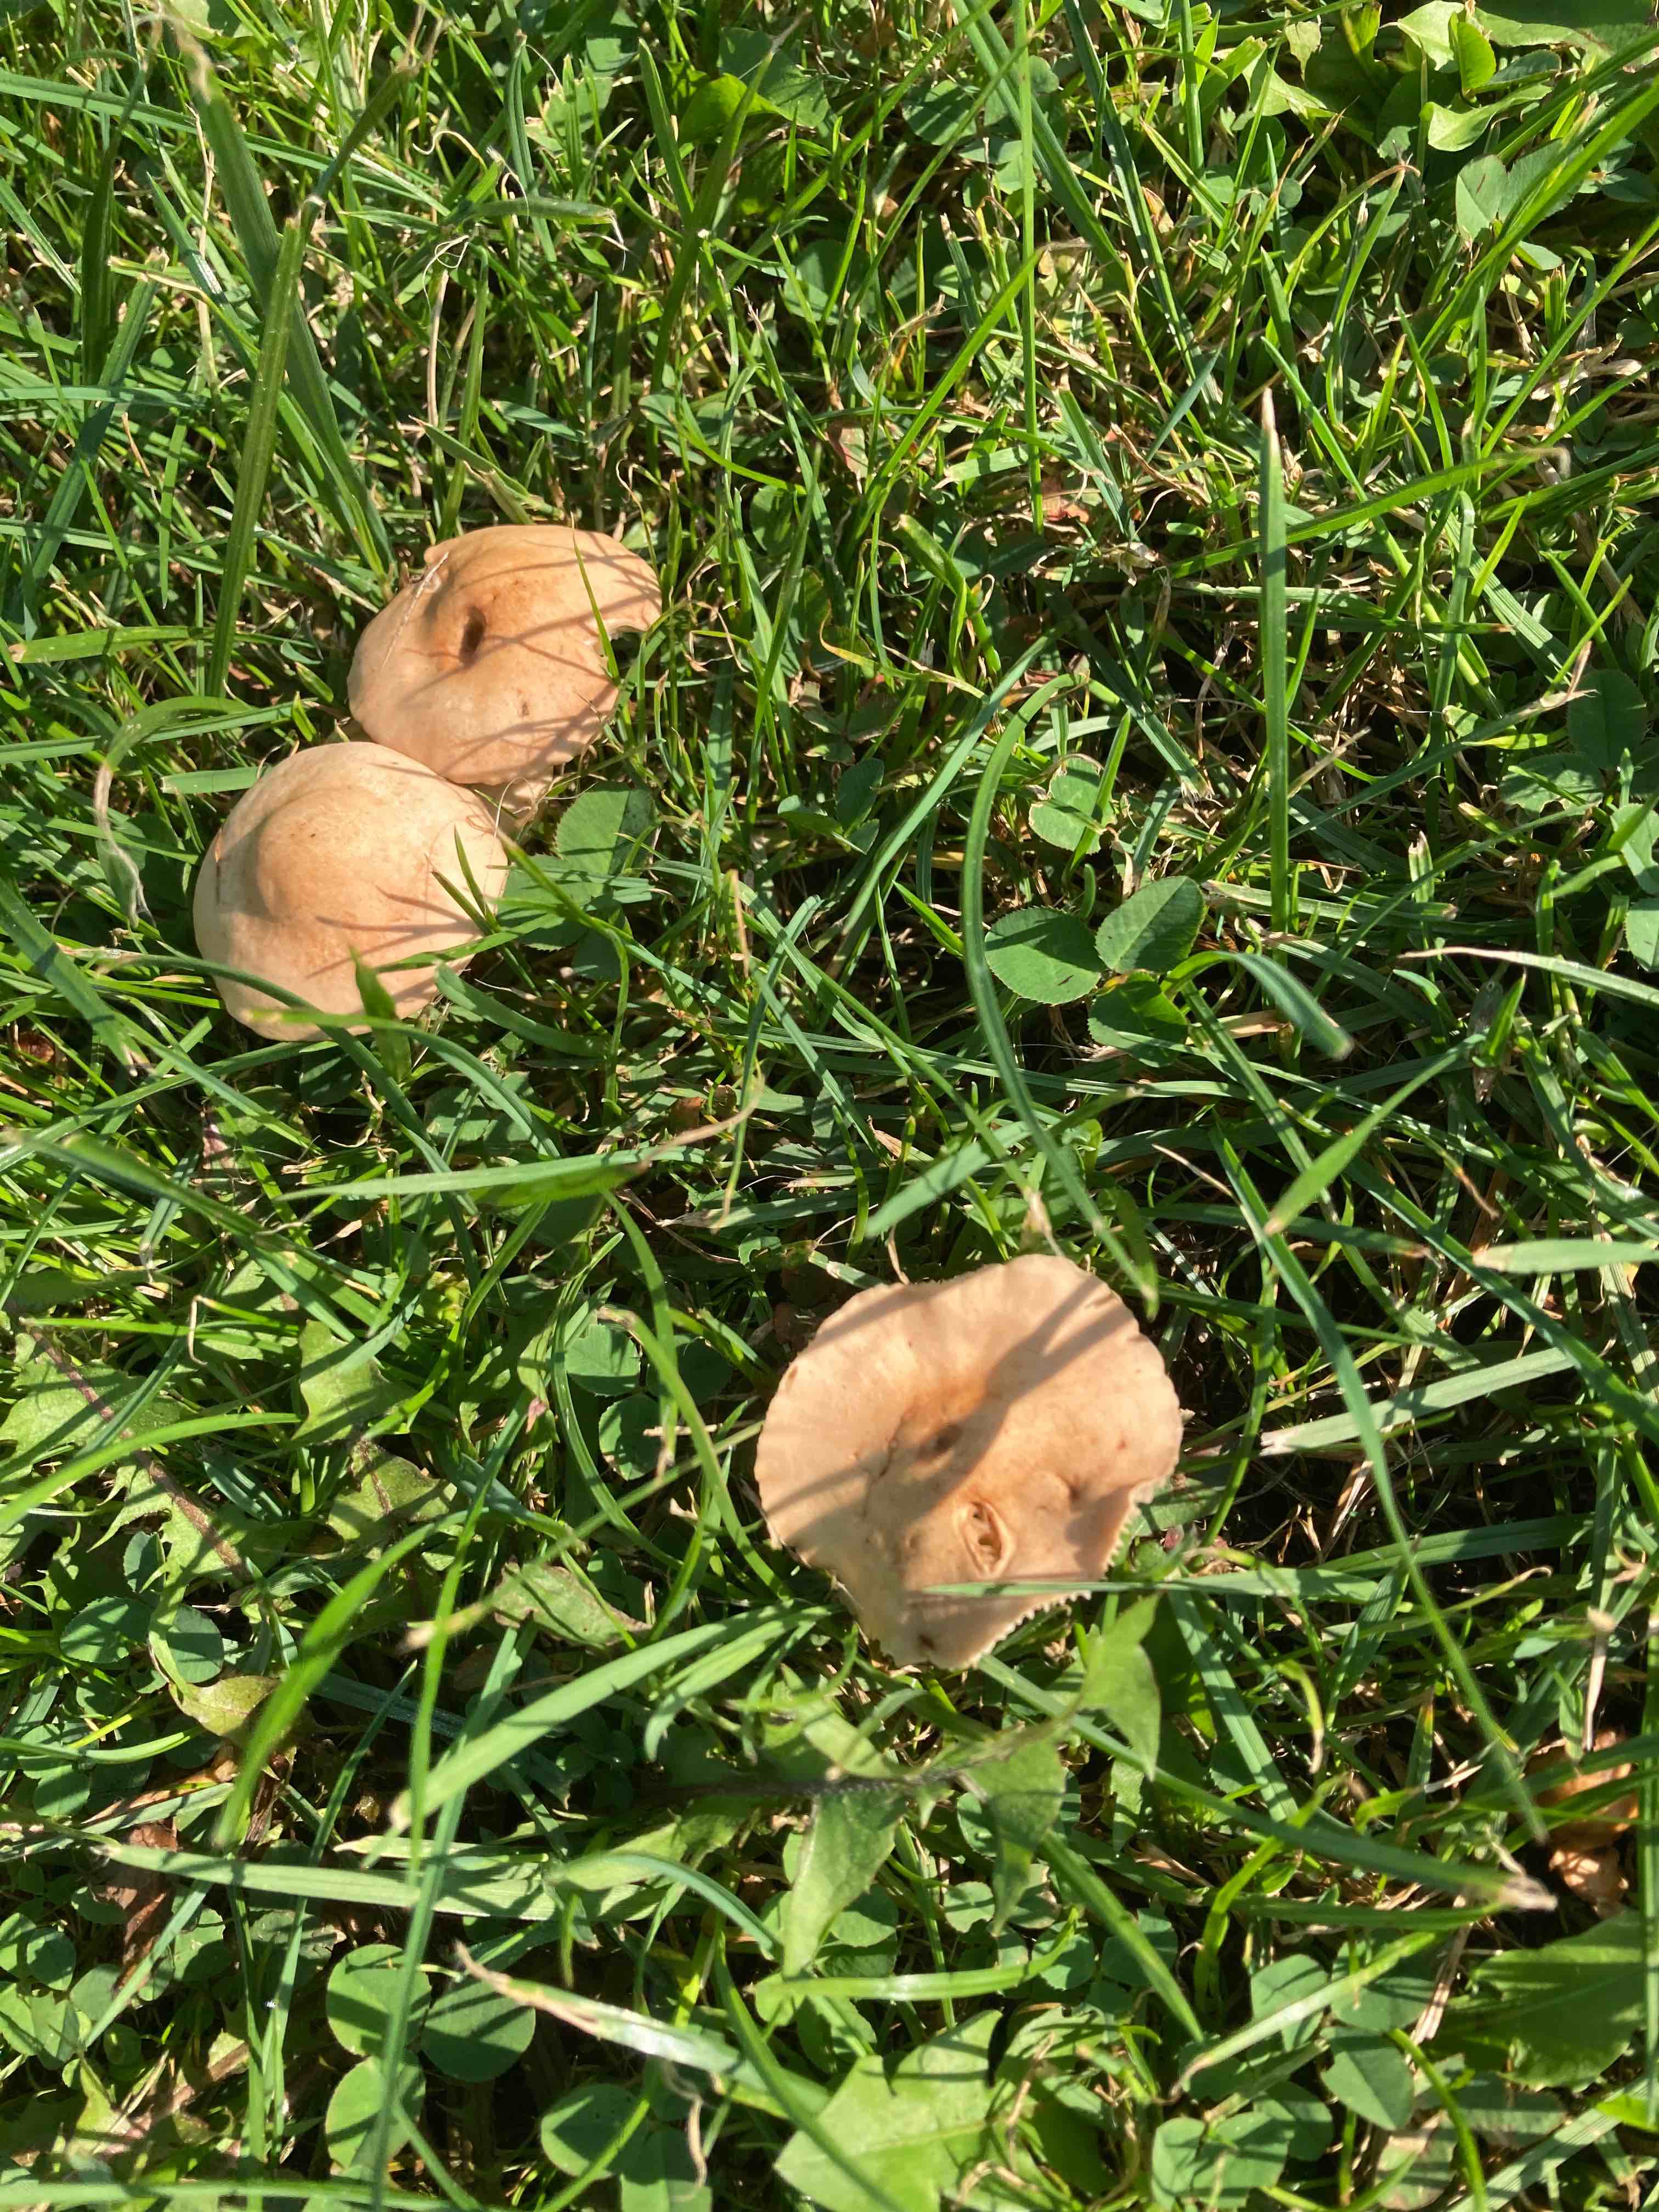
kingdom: Fungi
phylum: Basidiomycota
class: Agaricomycetes
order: Agaricales
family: Marasmiaceae
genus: Marasmius
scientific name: Marasmius oreades
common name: elledans-bruskhat
